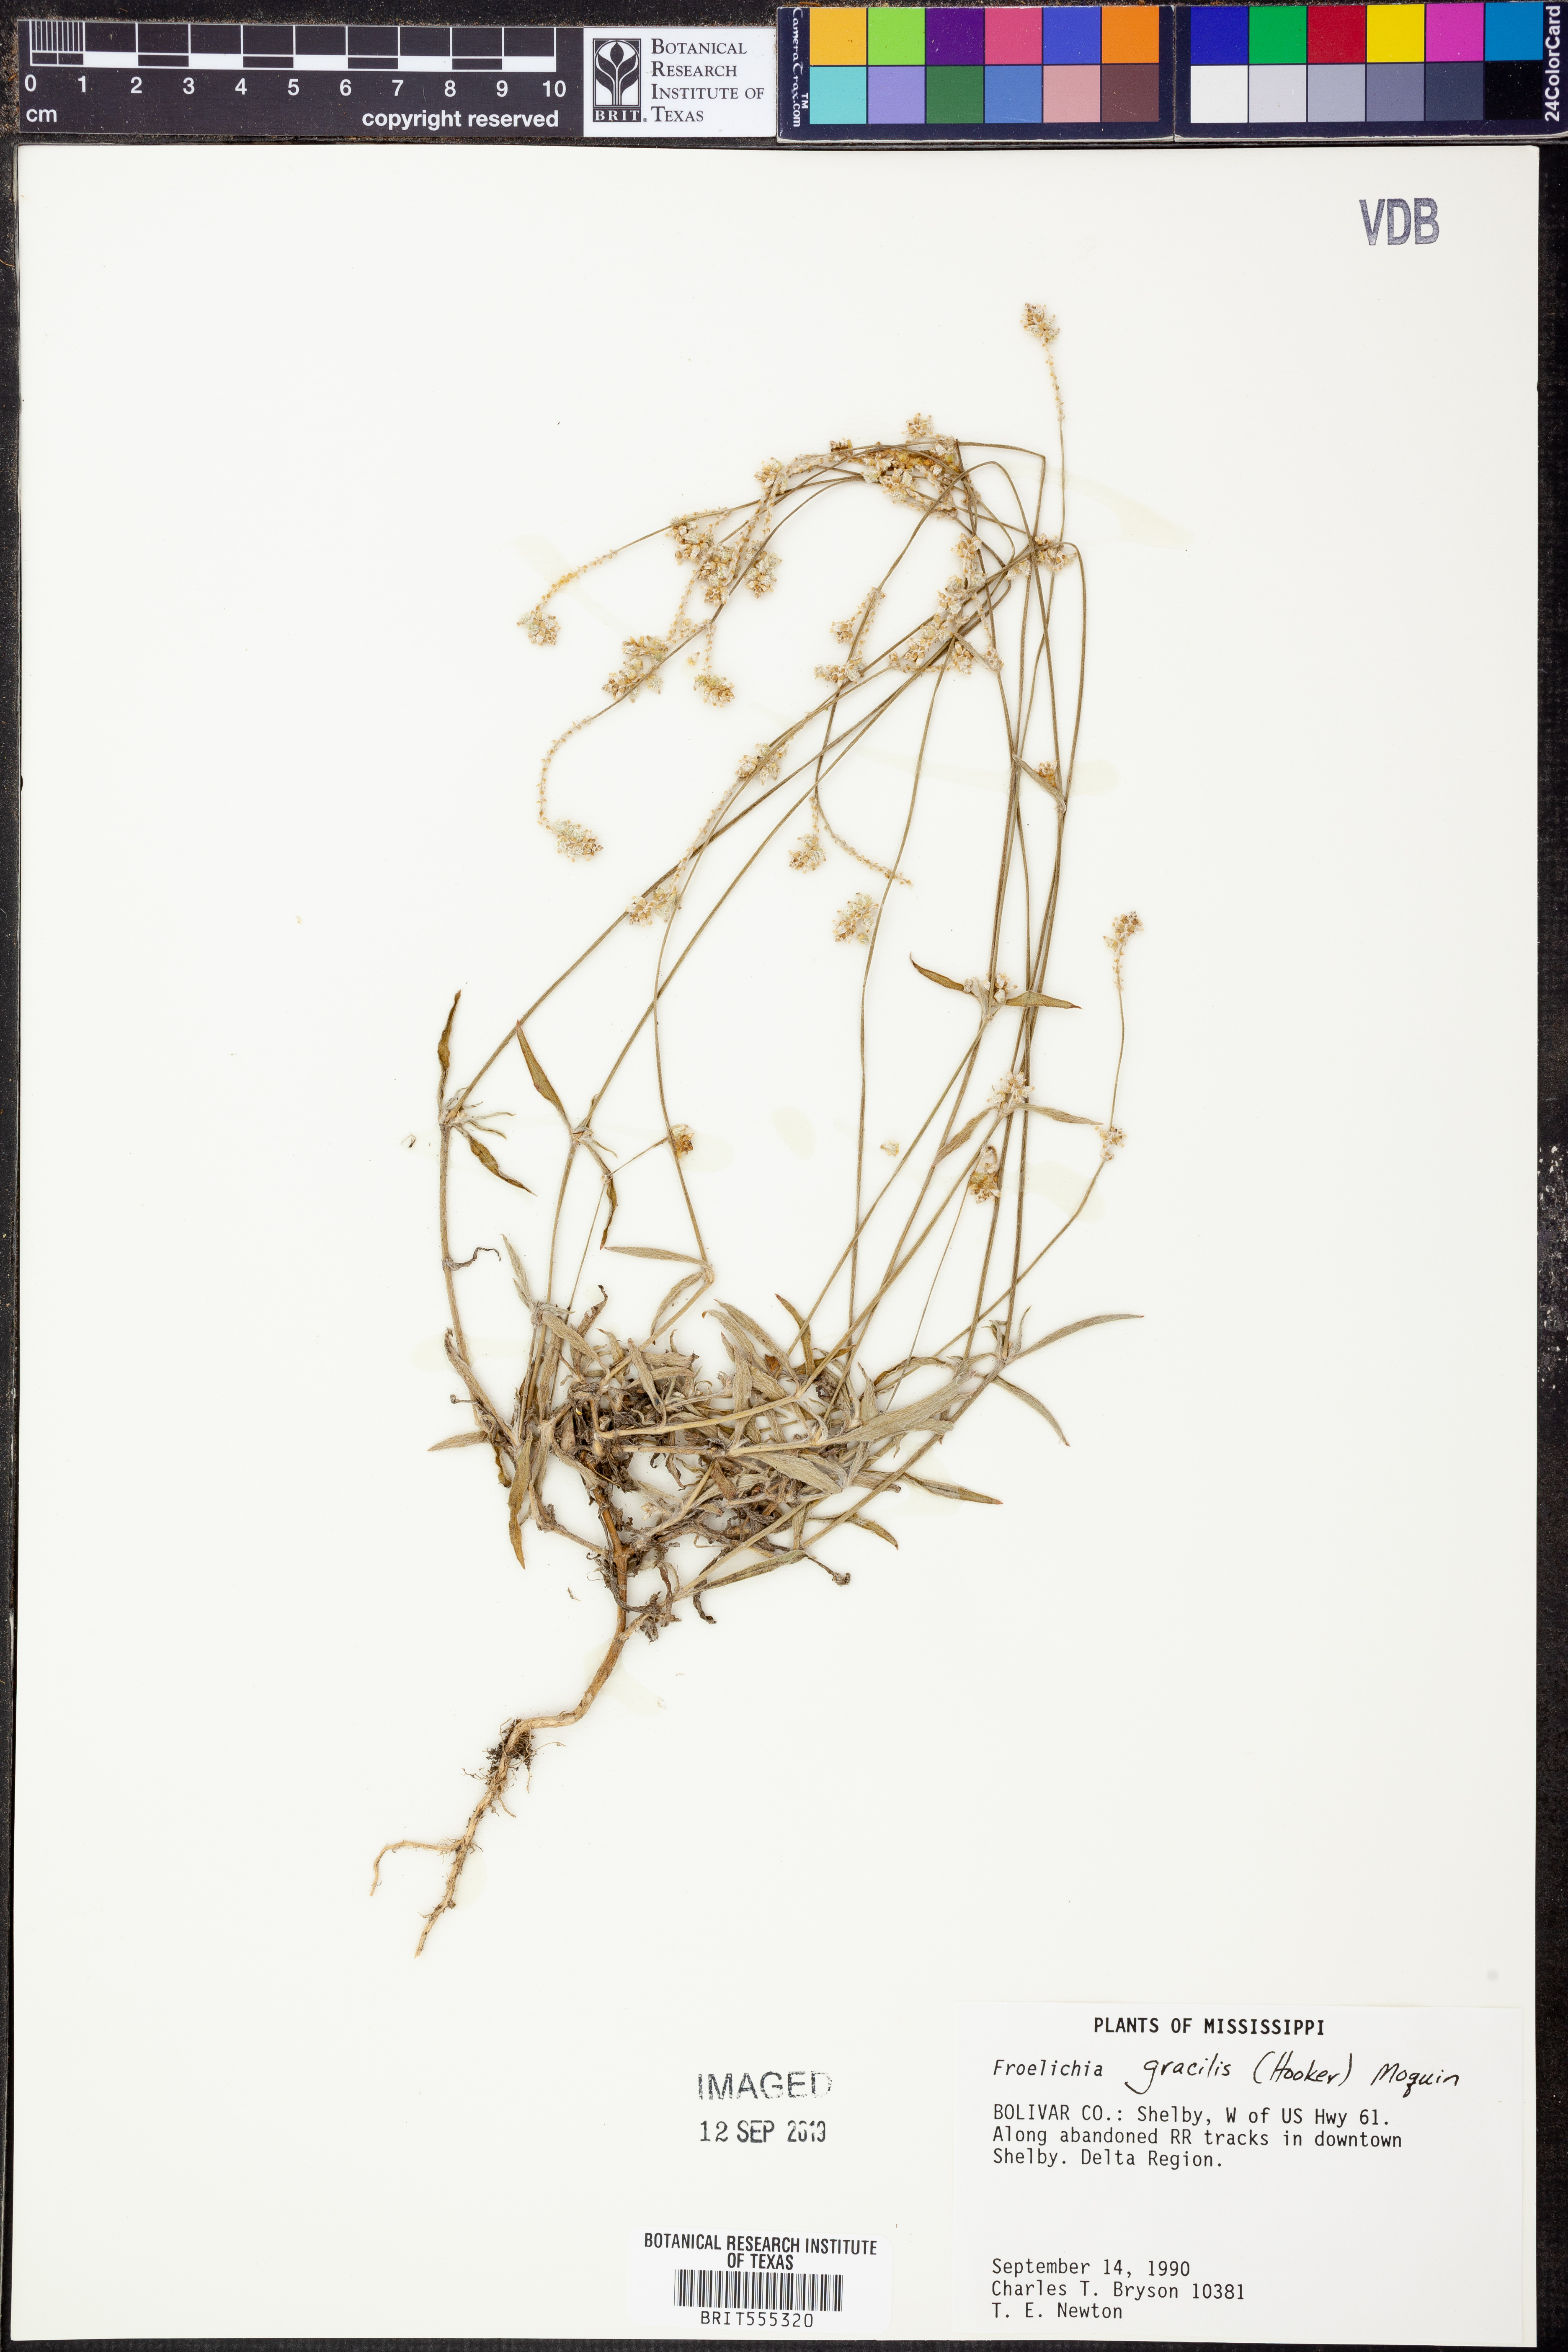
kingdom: Plantae
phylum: Tracheophyta
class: Magnoliopsida
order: Caryophyllales
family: Amaranthaceae
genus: Froelichia
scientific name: Froelichia gracilis
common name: Slender cottonweed
